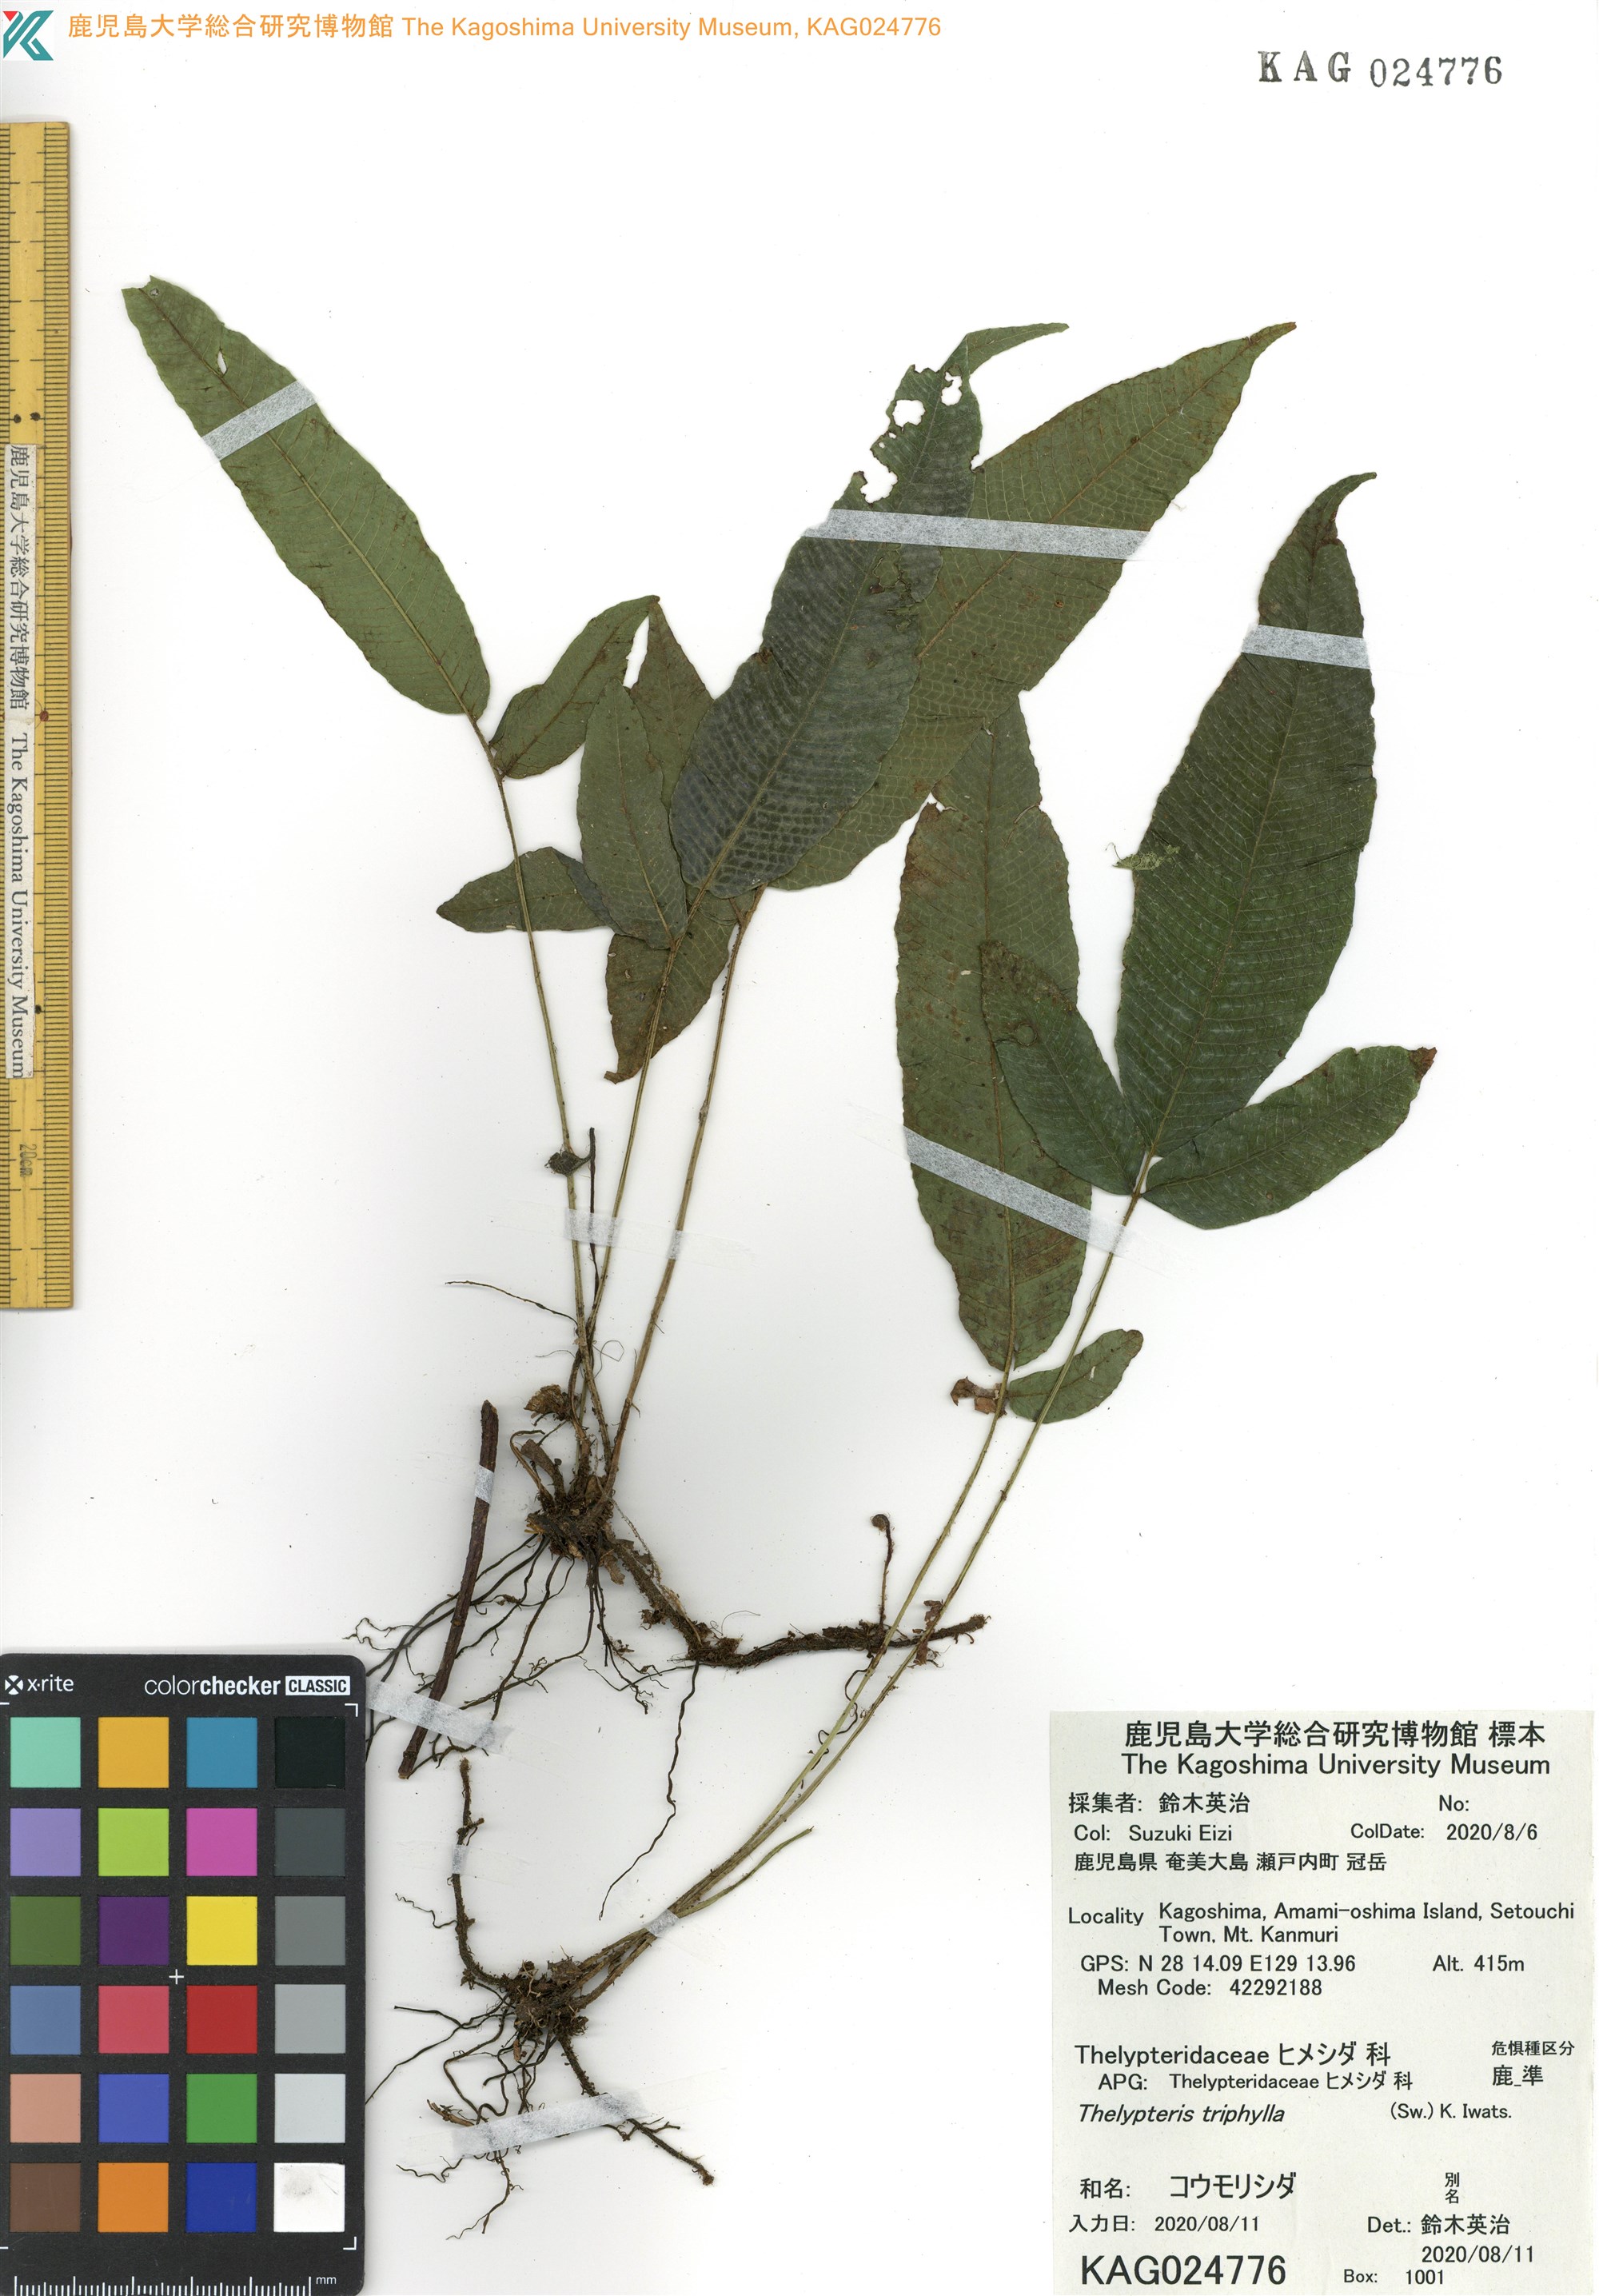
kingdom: Plantae
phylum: Tracheophyta
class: Polypodiopsida
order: Polypodiales
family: Thelypteridaceae
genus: Grypothrix
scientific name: Grypothrix triphylla
